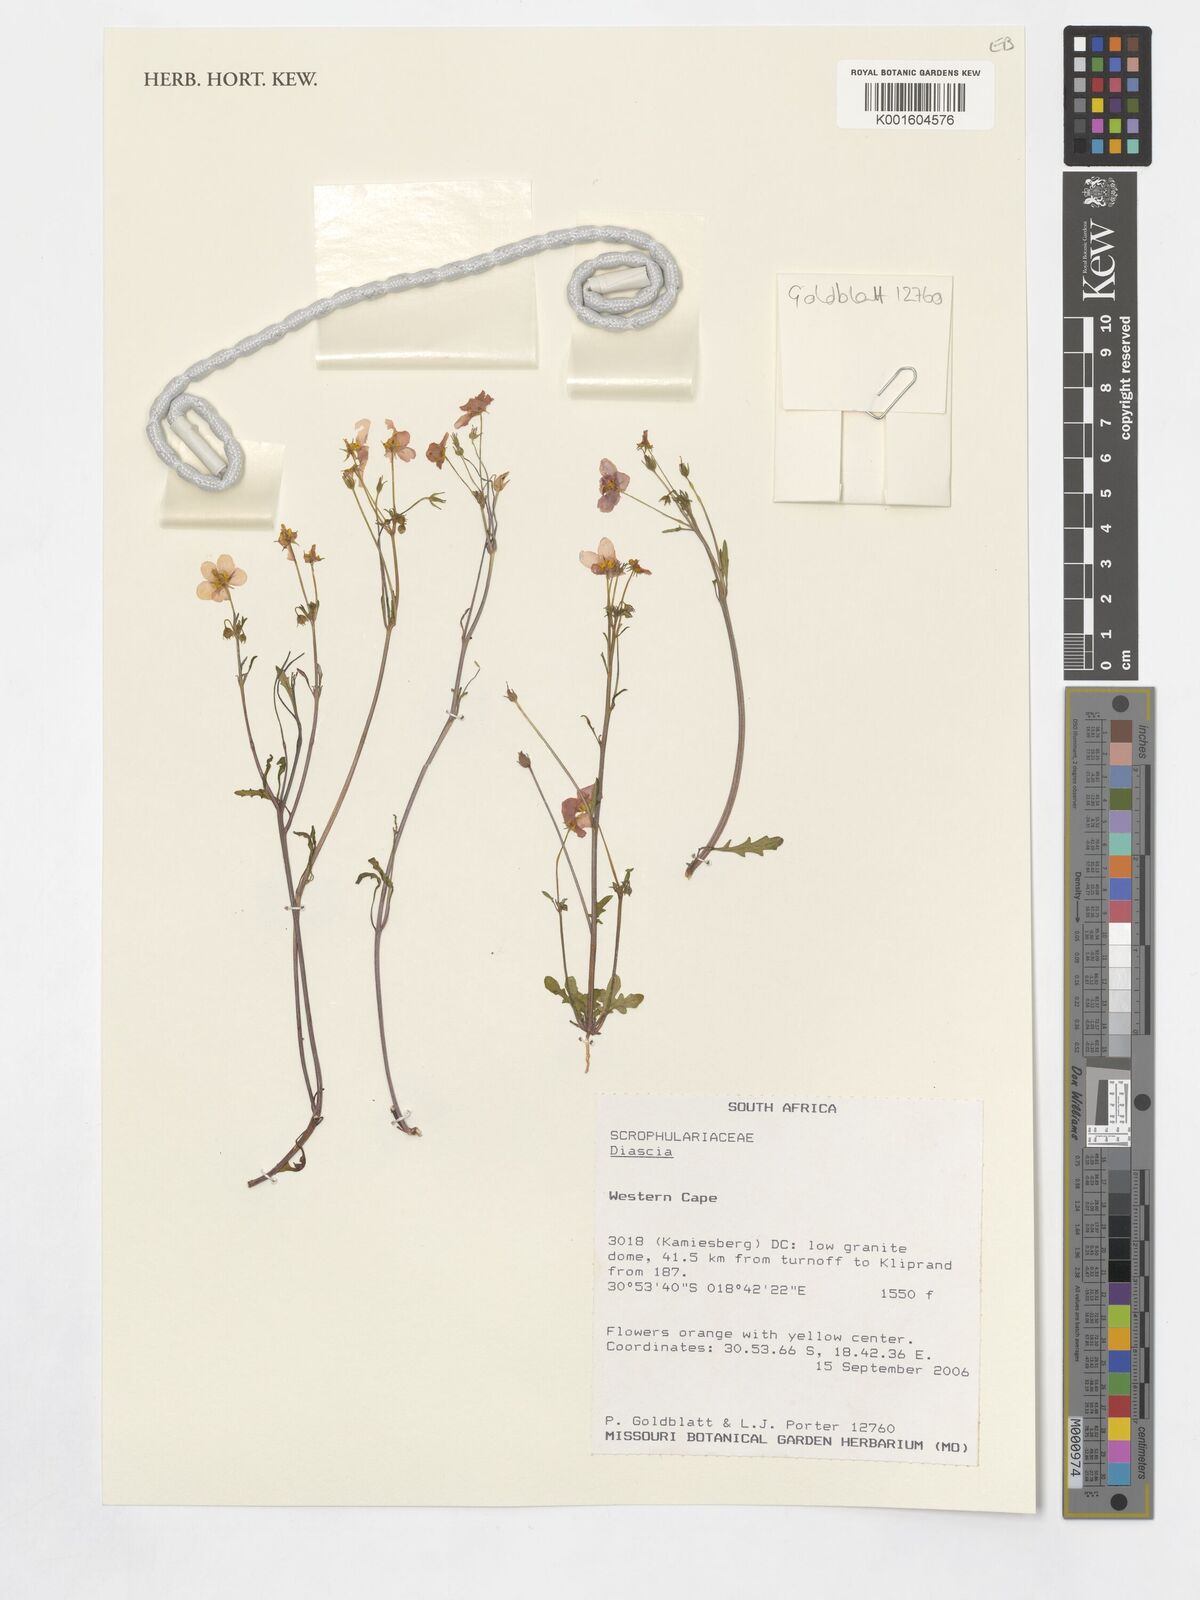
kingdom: Plantae
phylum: Tracheophyta
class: Magnoliopsida
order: Lamiales
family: Scrophulariaceae
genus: Diascia
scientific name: Diascia
